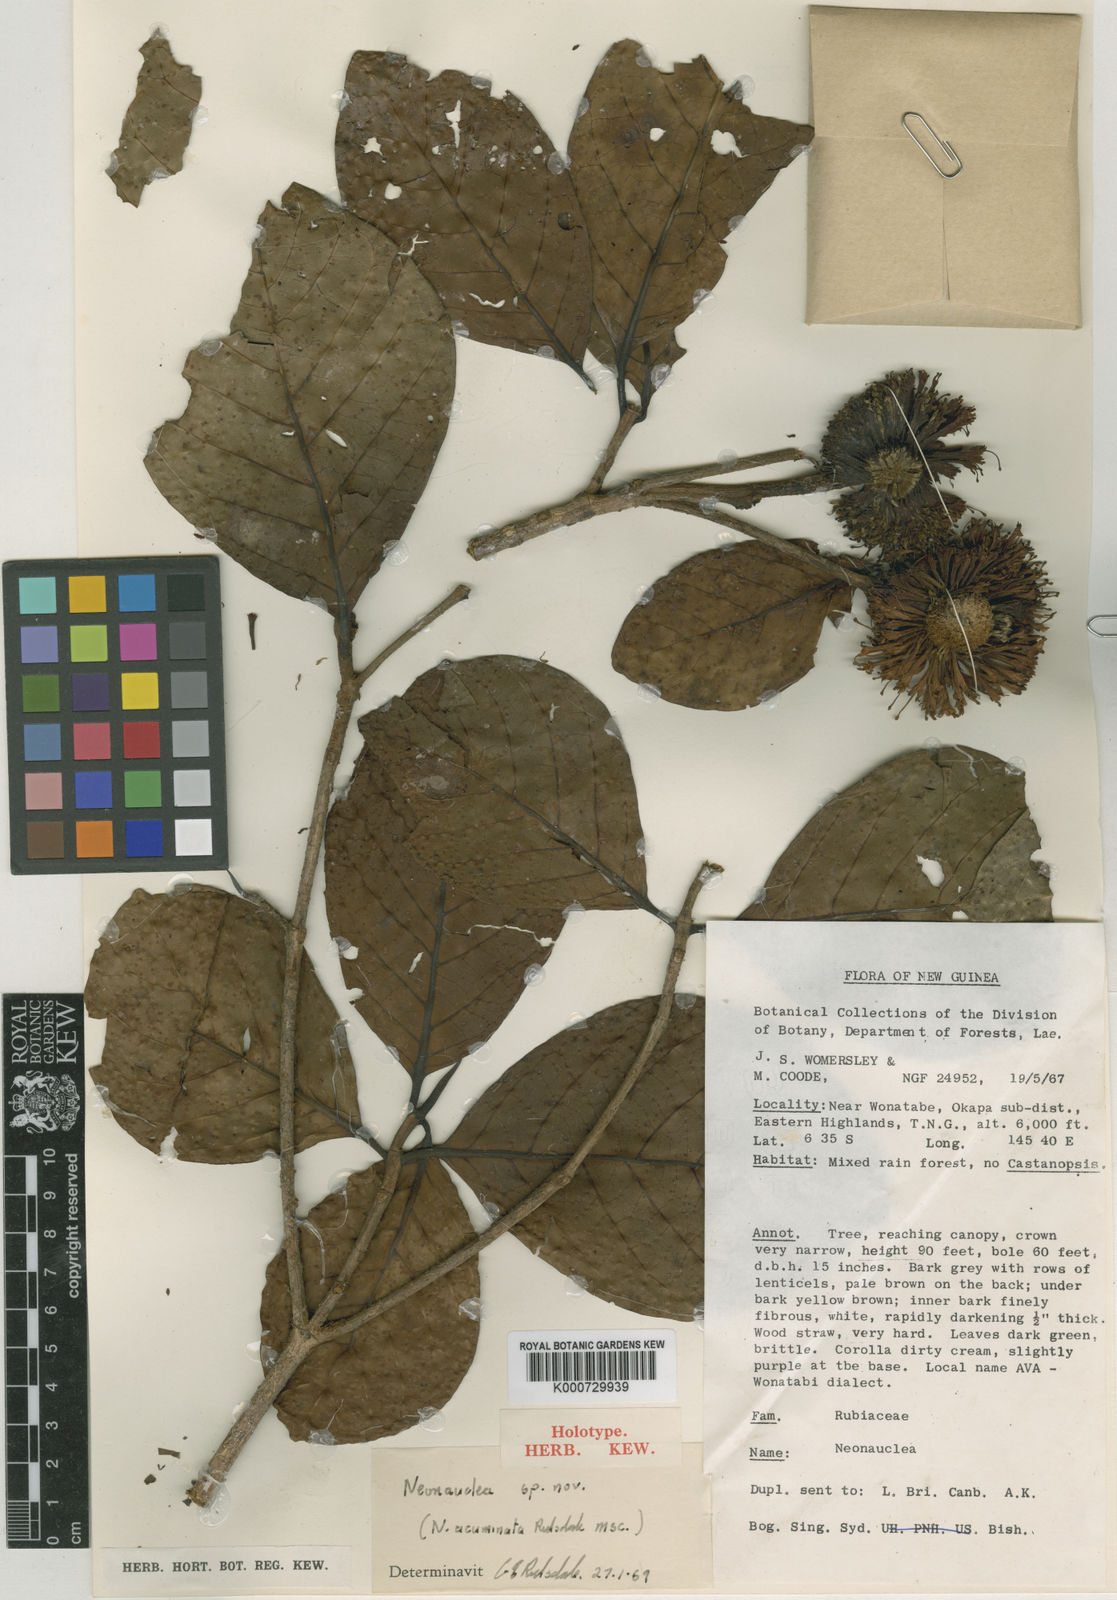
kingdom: Plantae
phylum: Tracheophyta
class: Magnoliopsida
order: Gentianales
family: Rubiaceae
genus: Neonauclea
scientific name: Neonauclea acuminata
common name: Yellow hardwood
